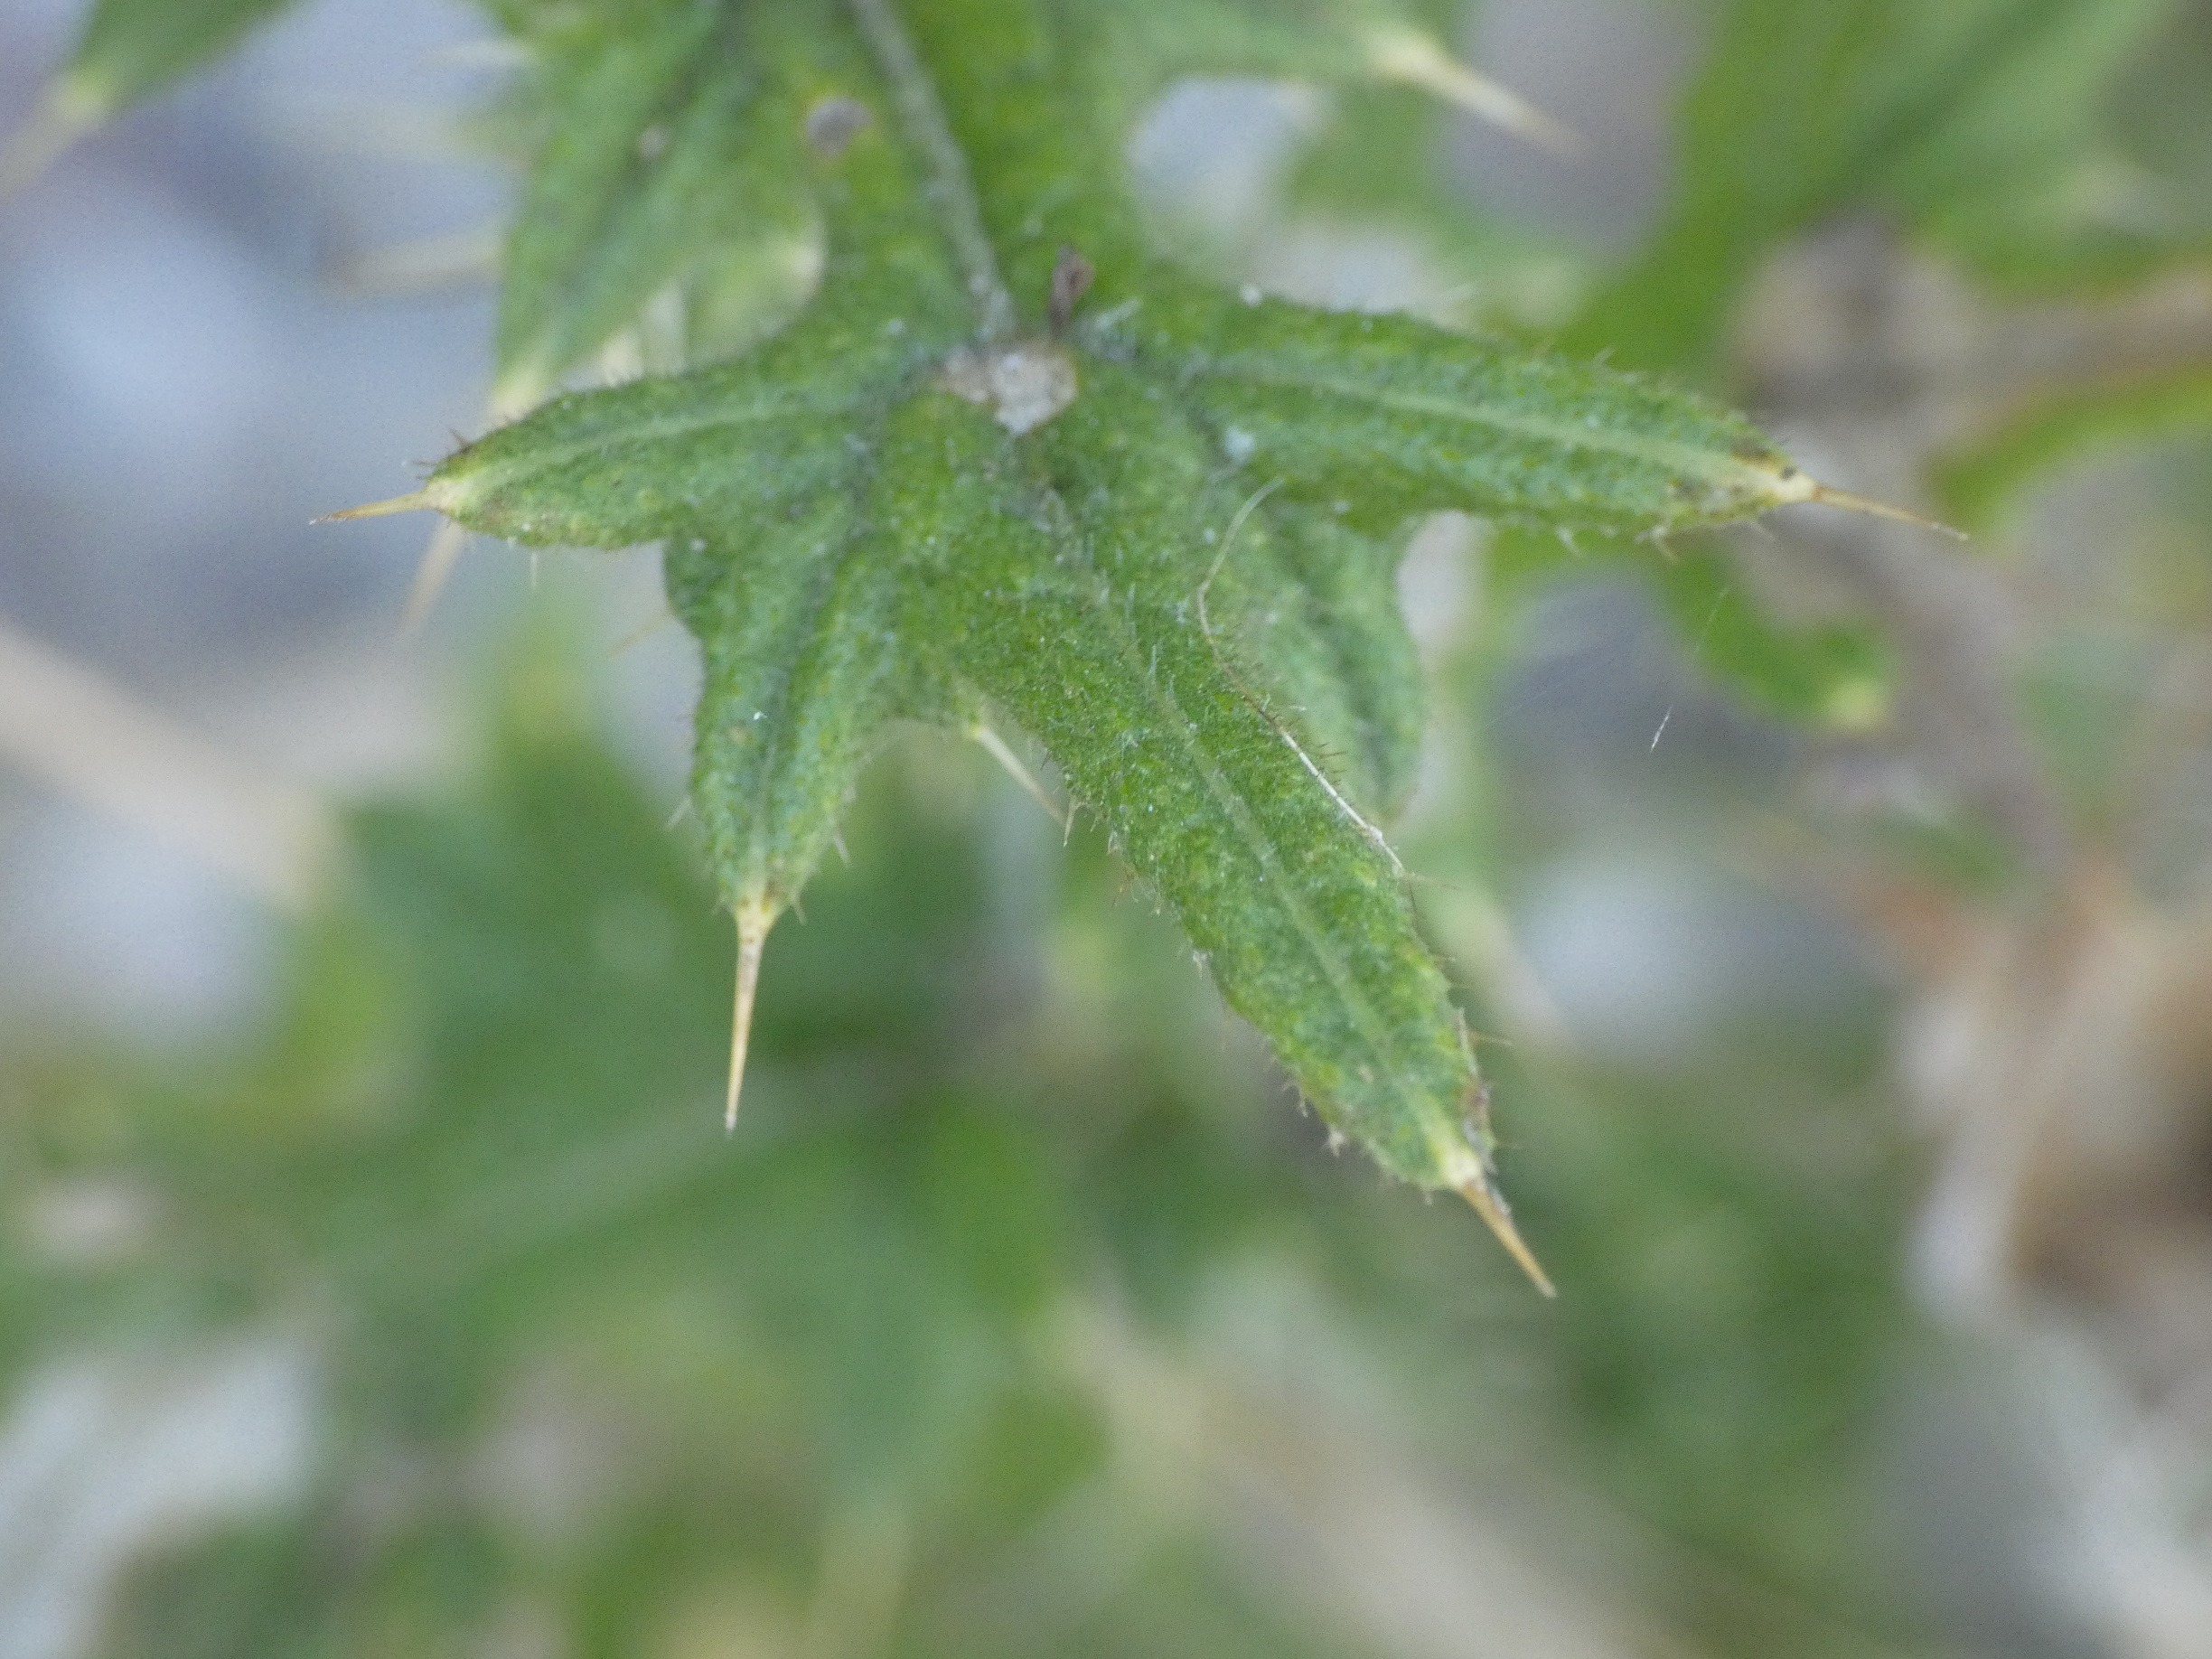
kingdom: Plantae
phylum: Tracheophyta
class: Magnoliopsida
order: Asterales
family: Asteraceae
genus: Cirsium
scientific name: Cirsium vulgare
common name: Horse-tidsel
